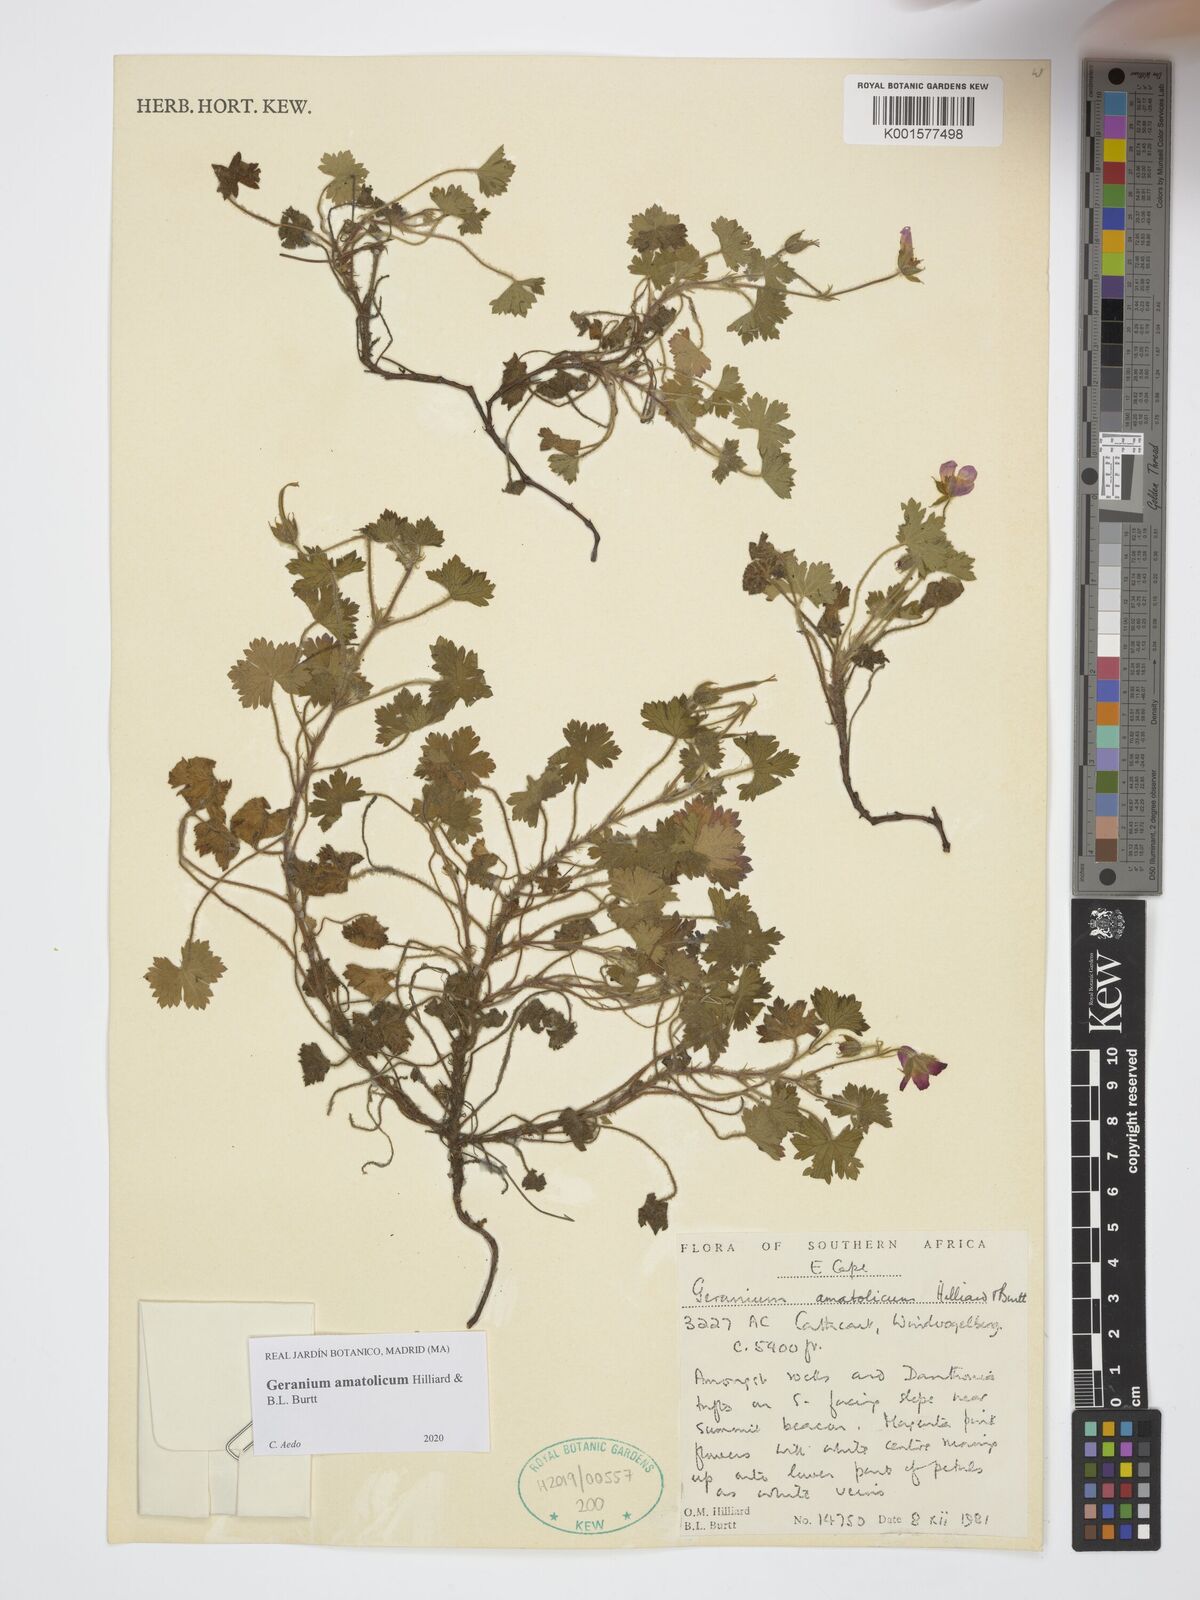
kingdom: Plantae
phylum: Tracheophyta
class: Magnoliopsida
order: Geraniales
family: Geraniaceae
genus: Geranium
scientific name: Geranium amatolicum
